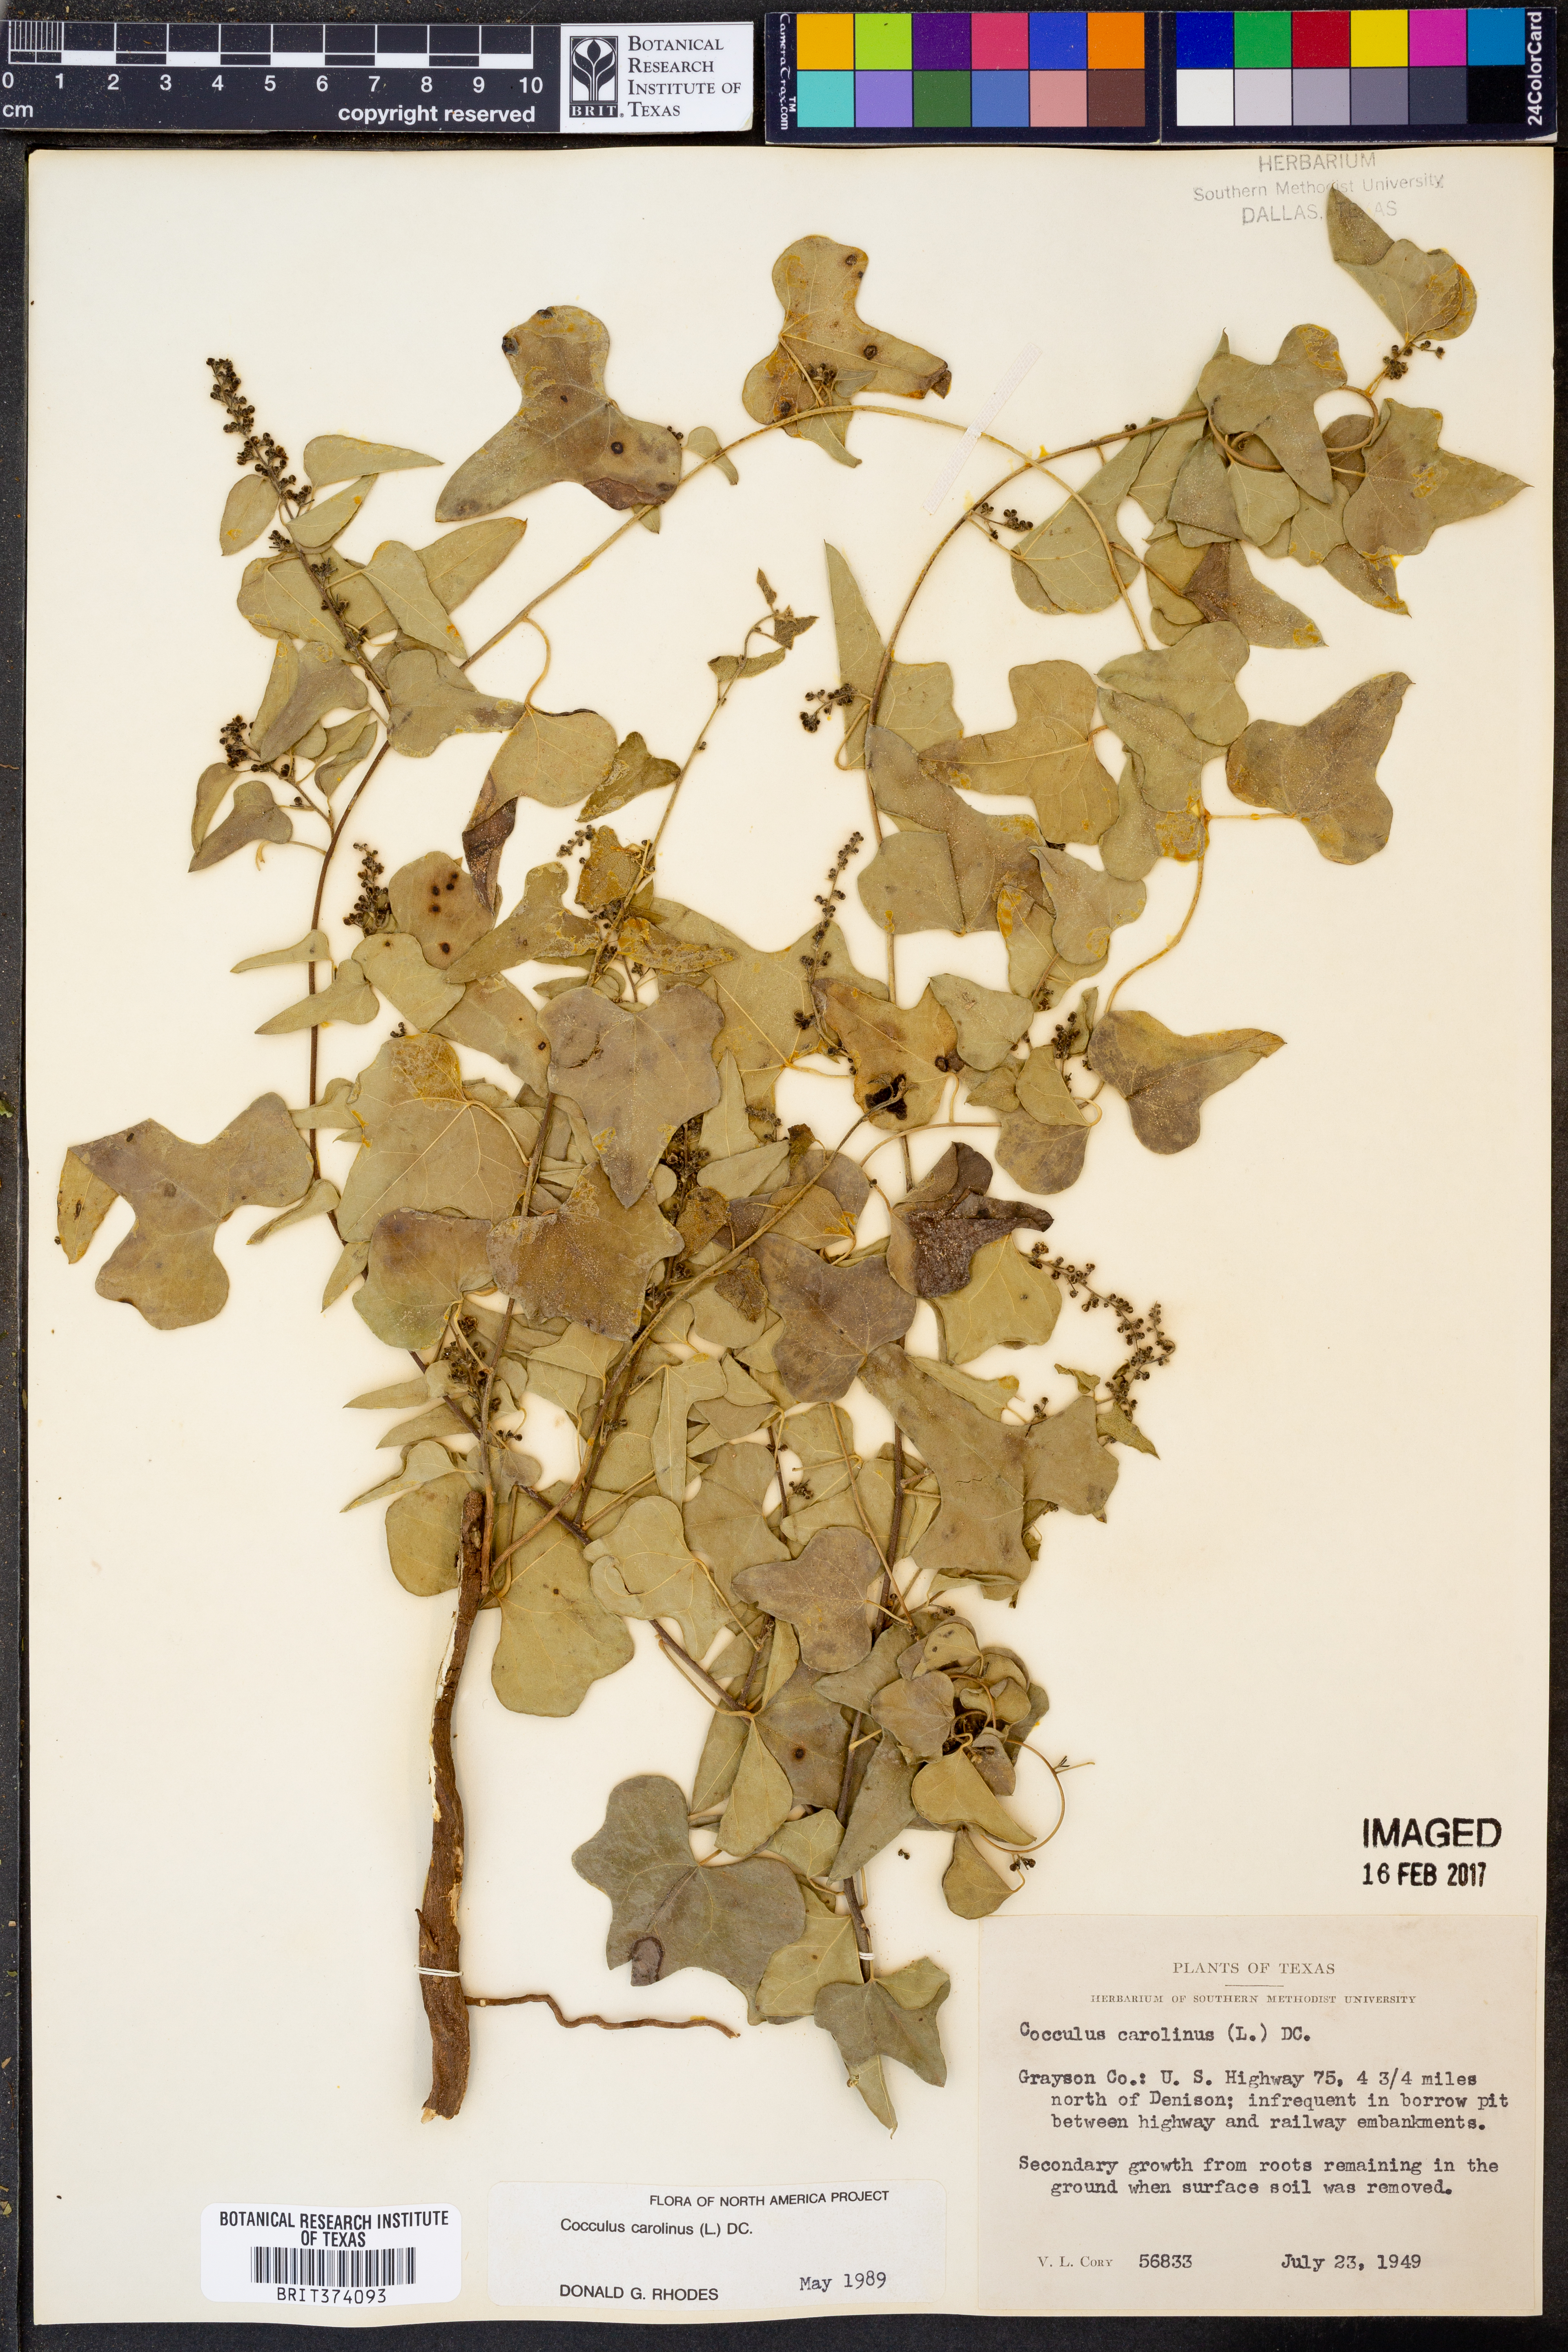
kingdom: Plantae
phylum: Tracheophyta
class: Magnoliopsida
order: Ranunculales
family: Menispermaceae
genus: Cocculus
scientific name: Cocculus carolinus
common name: Carolina moonseed
